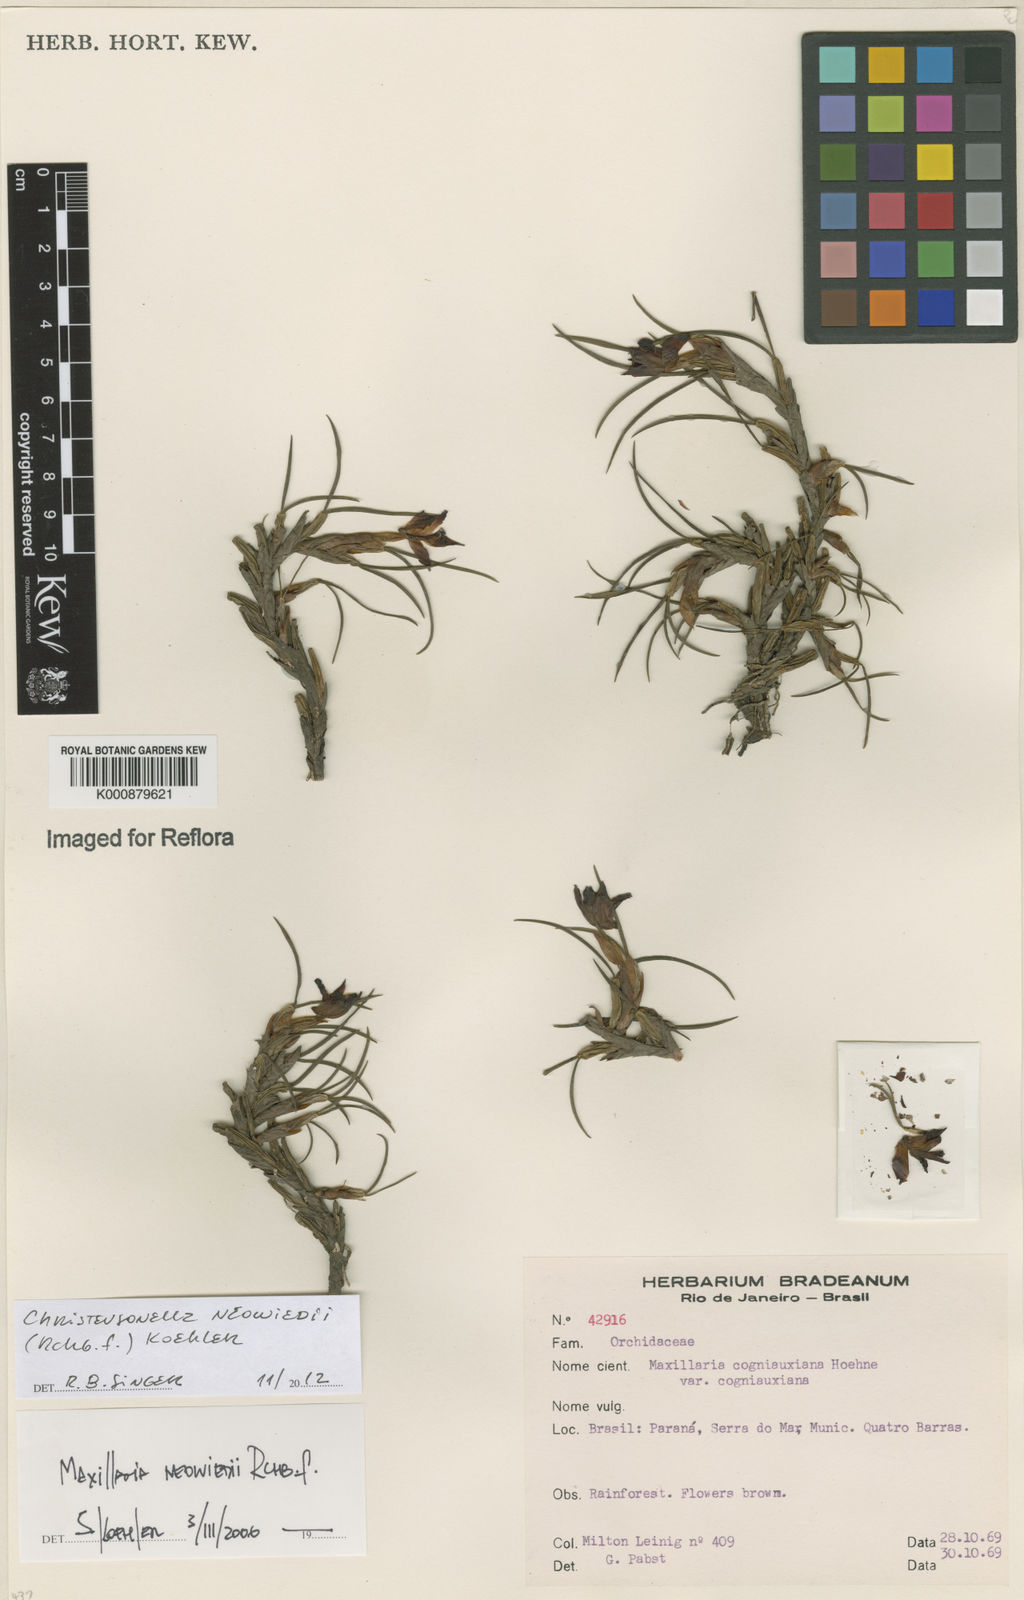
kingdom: Plantae
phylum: Tracheophyta
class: Liliopsida
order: Asparagales
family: Orchidaceae
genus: Maxillaria
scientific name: Maxillaria
